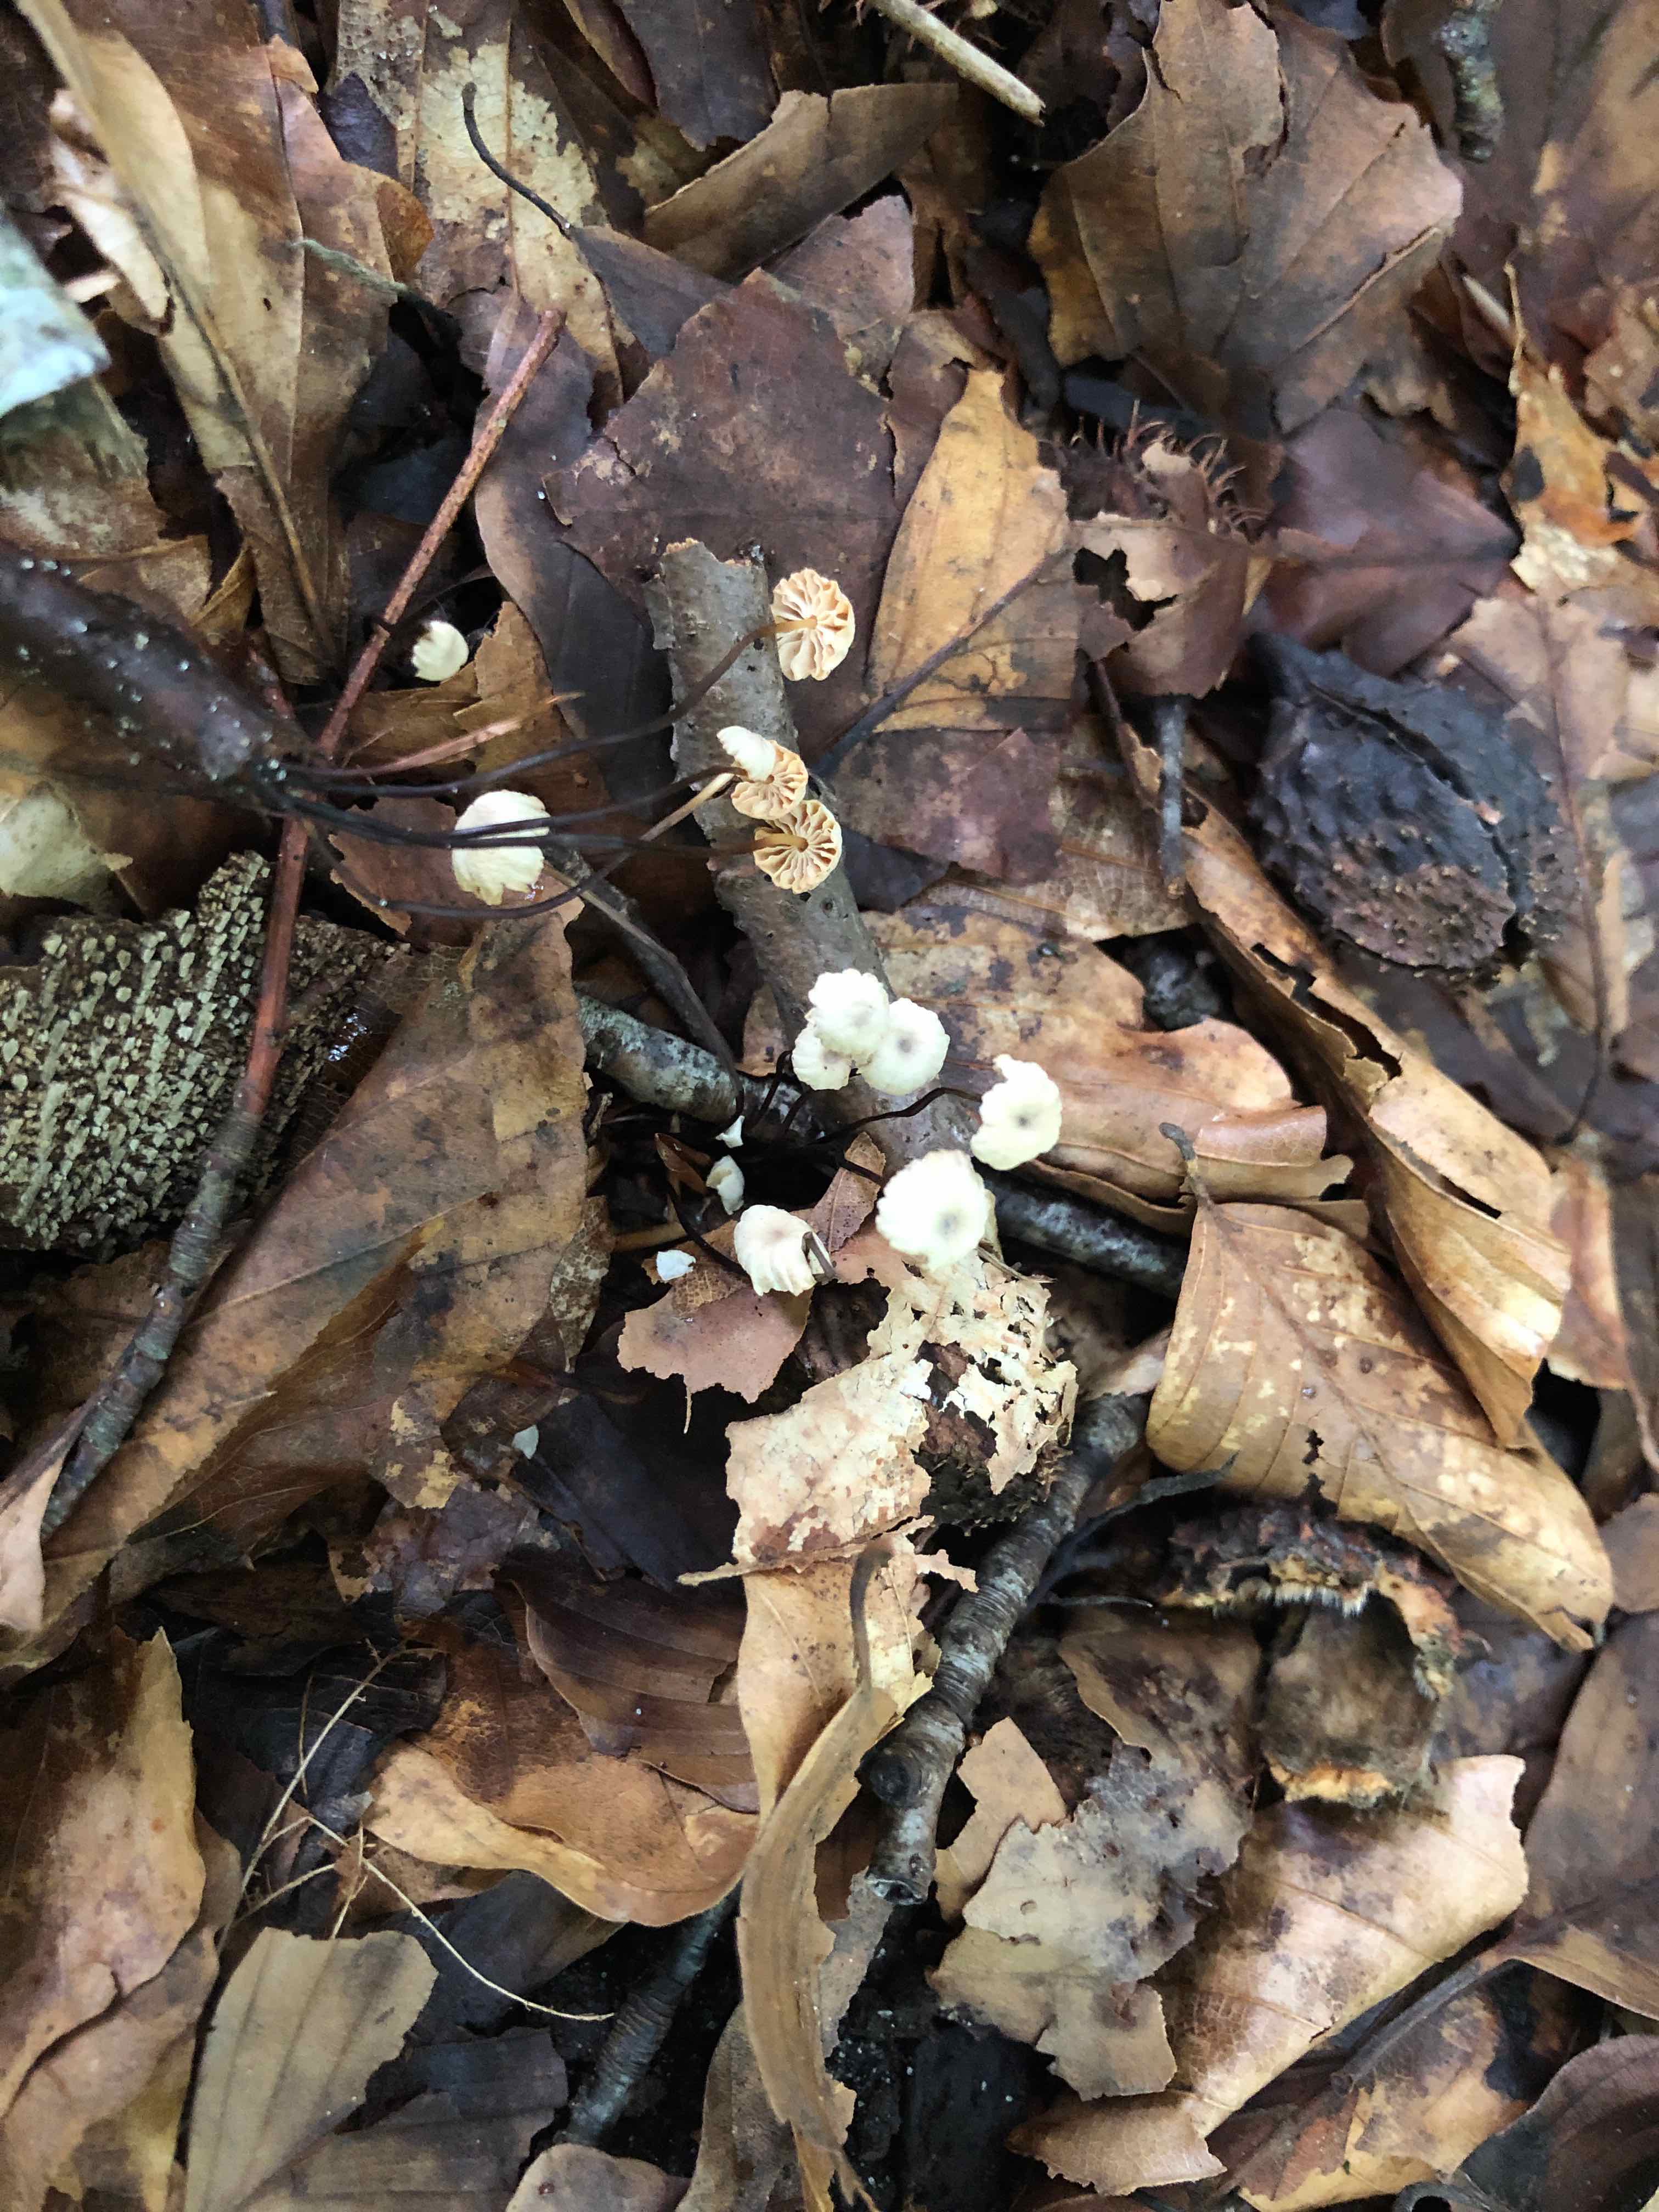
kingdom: Fungi
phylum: Basidiomycota
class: Agaricomycetes
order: Agaricales
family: Marasmiaceae
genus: Marasmius
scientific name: Marasmius rotula
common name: hjul-bruskhat
